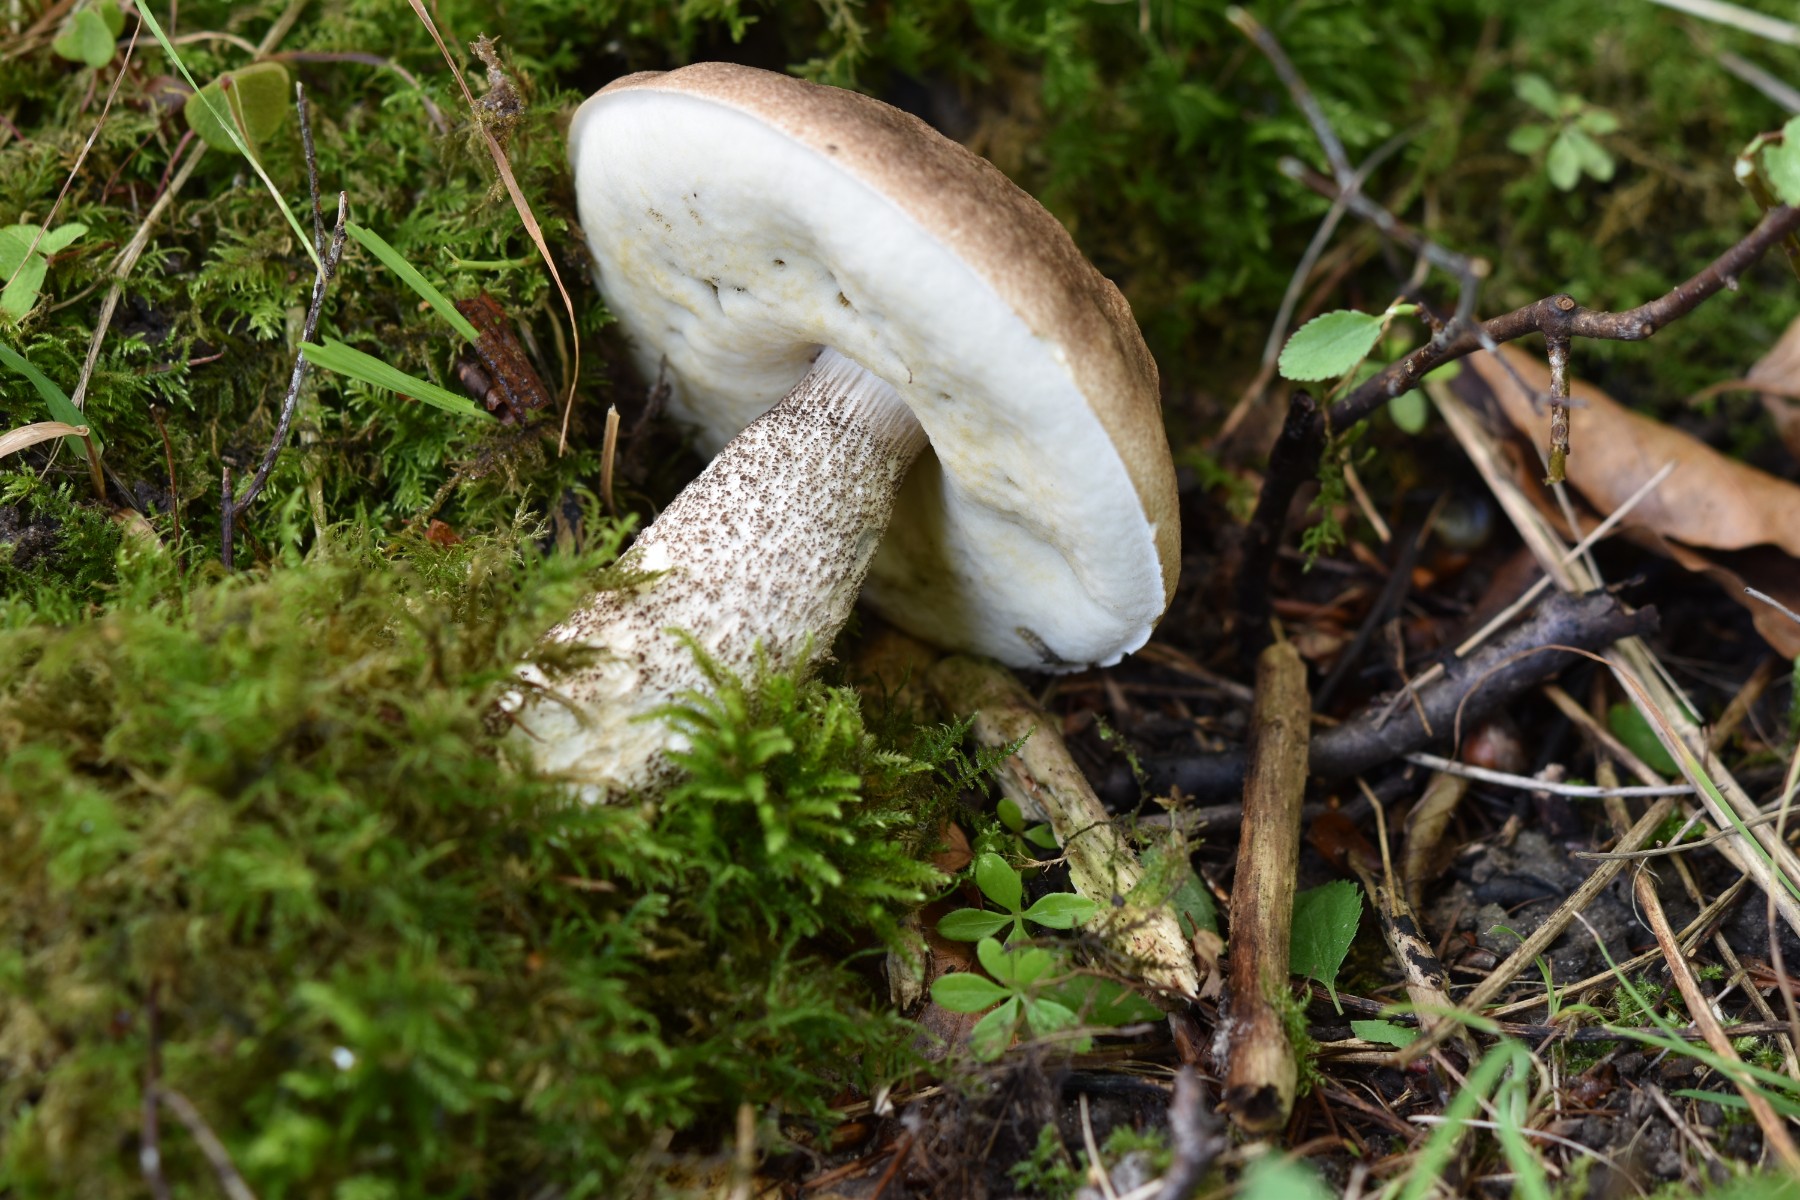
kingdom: Fungi
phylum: Basidiomycota
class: Agaricomycetes
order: Boletales
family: Boletaceae
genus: Leccinum
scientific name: Leccinum duriusculum
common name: poppel-skælrørhat
